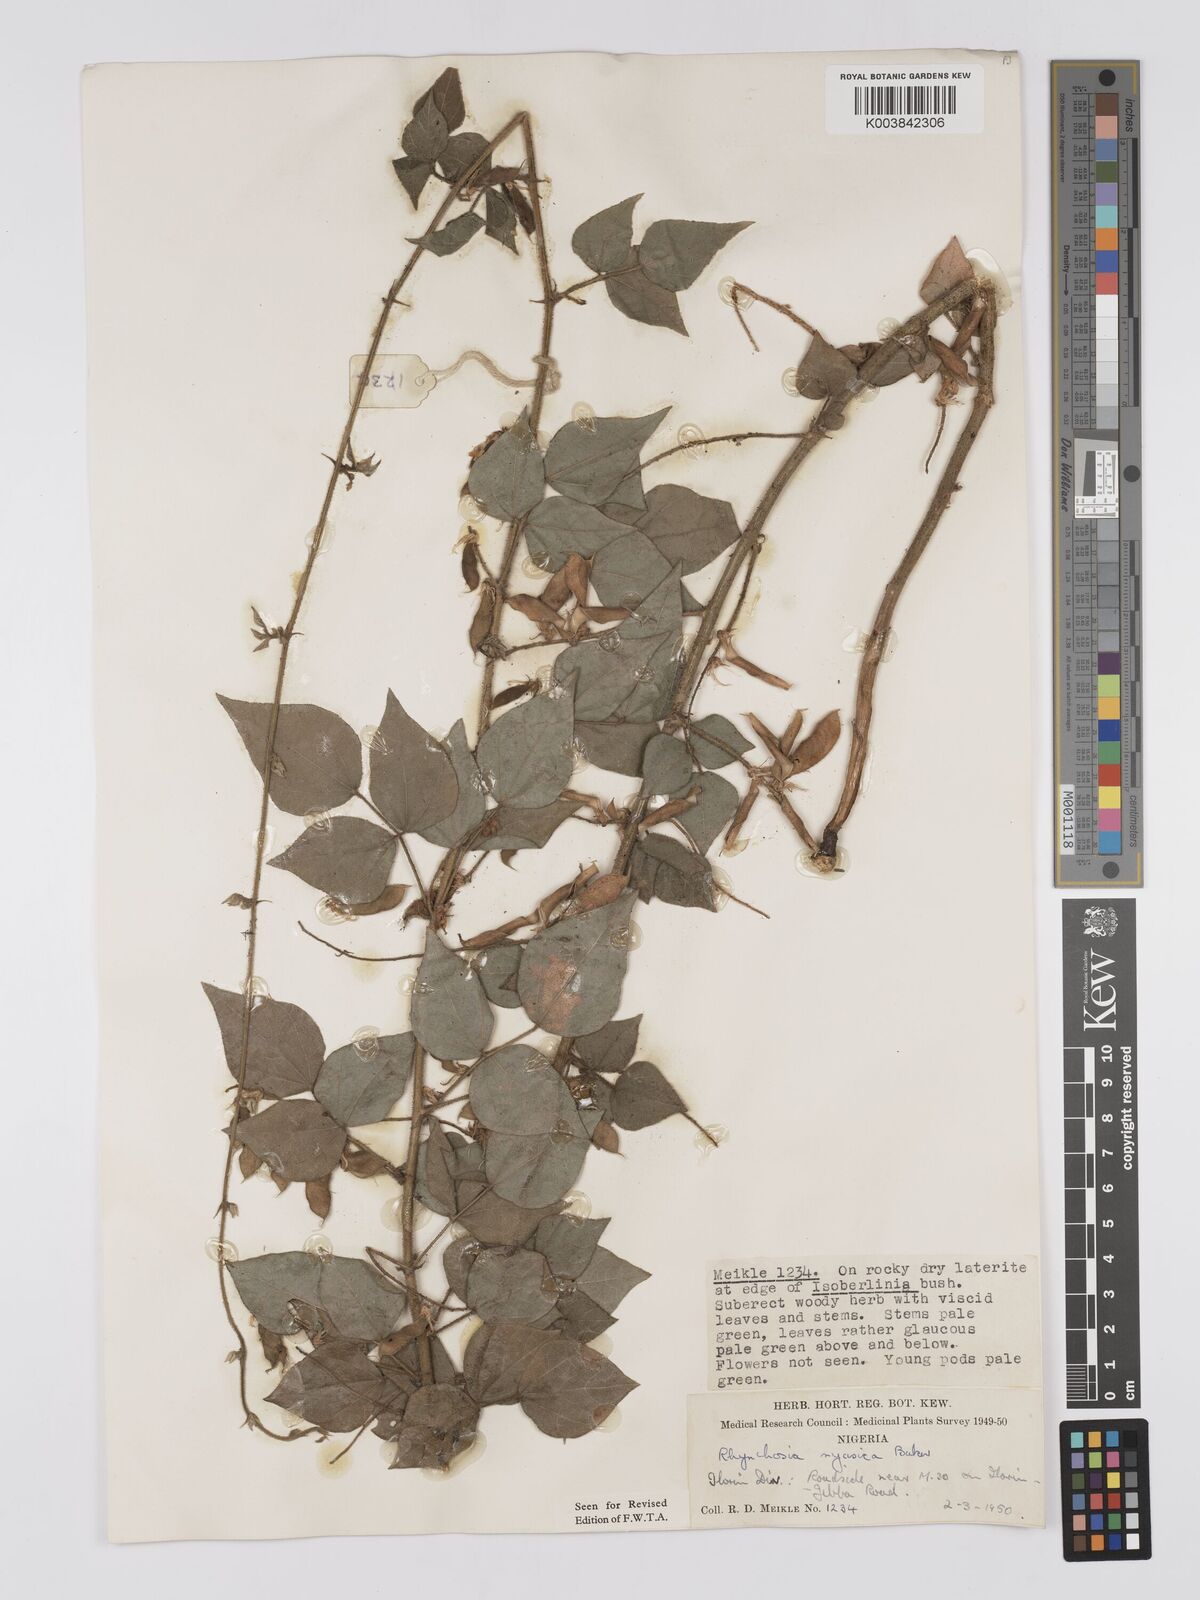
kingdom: Plantae
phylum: Tracheophyta
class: Magnoliopsida
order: Fabales
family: Fabaceae
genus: Rhynchosia
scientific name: Rhynchosia nyasica
